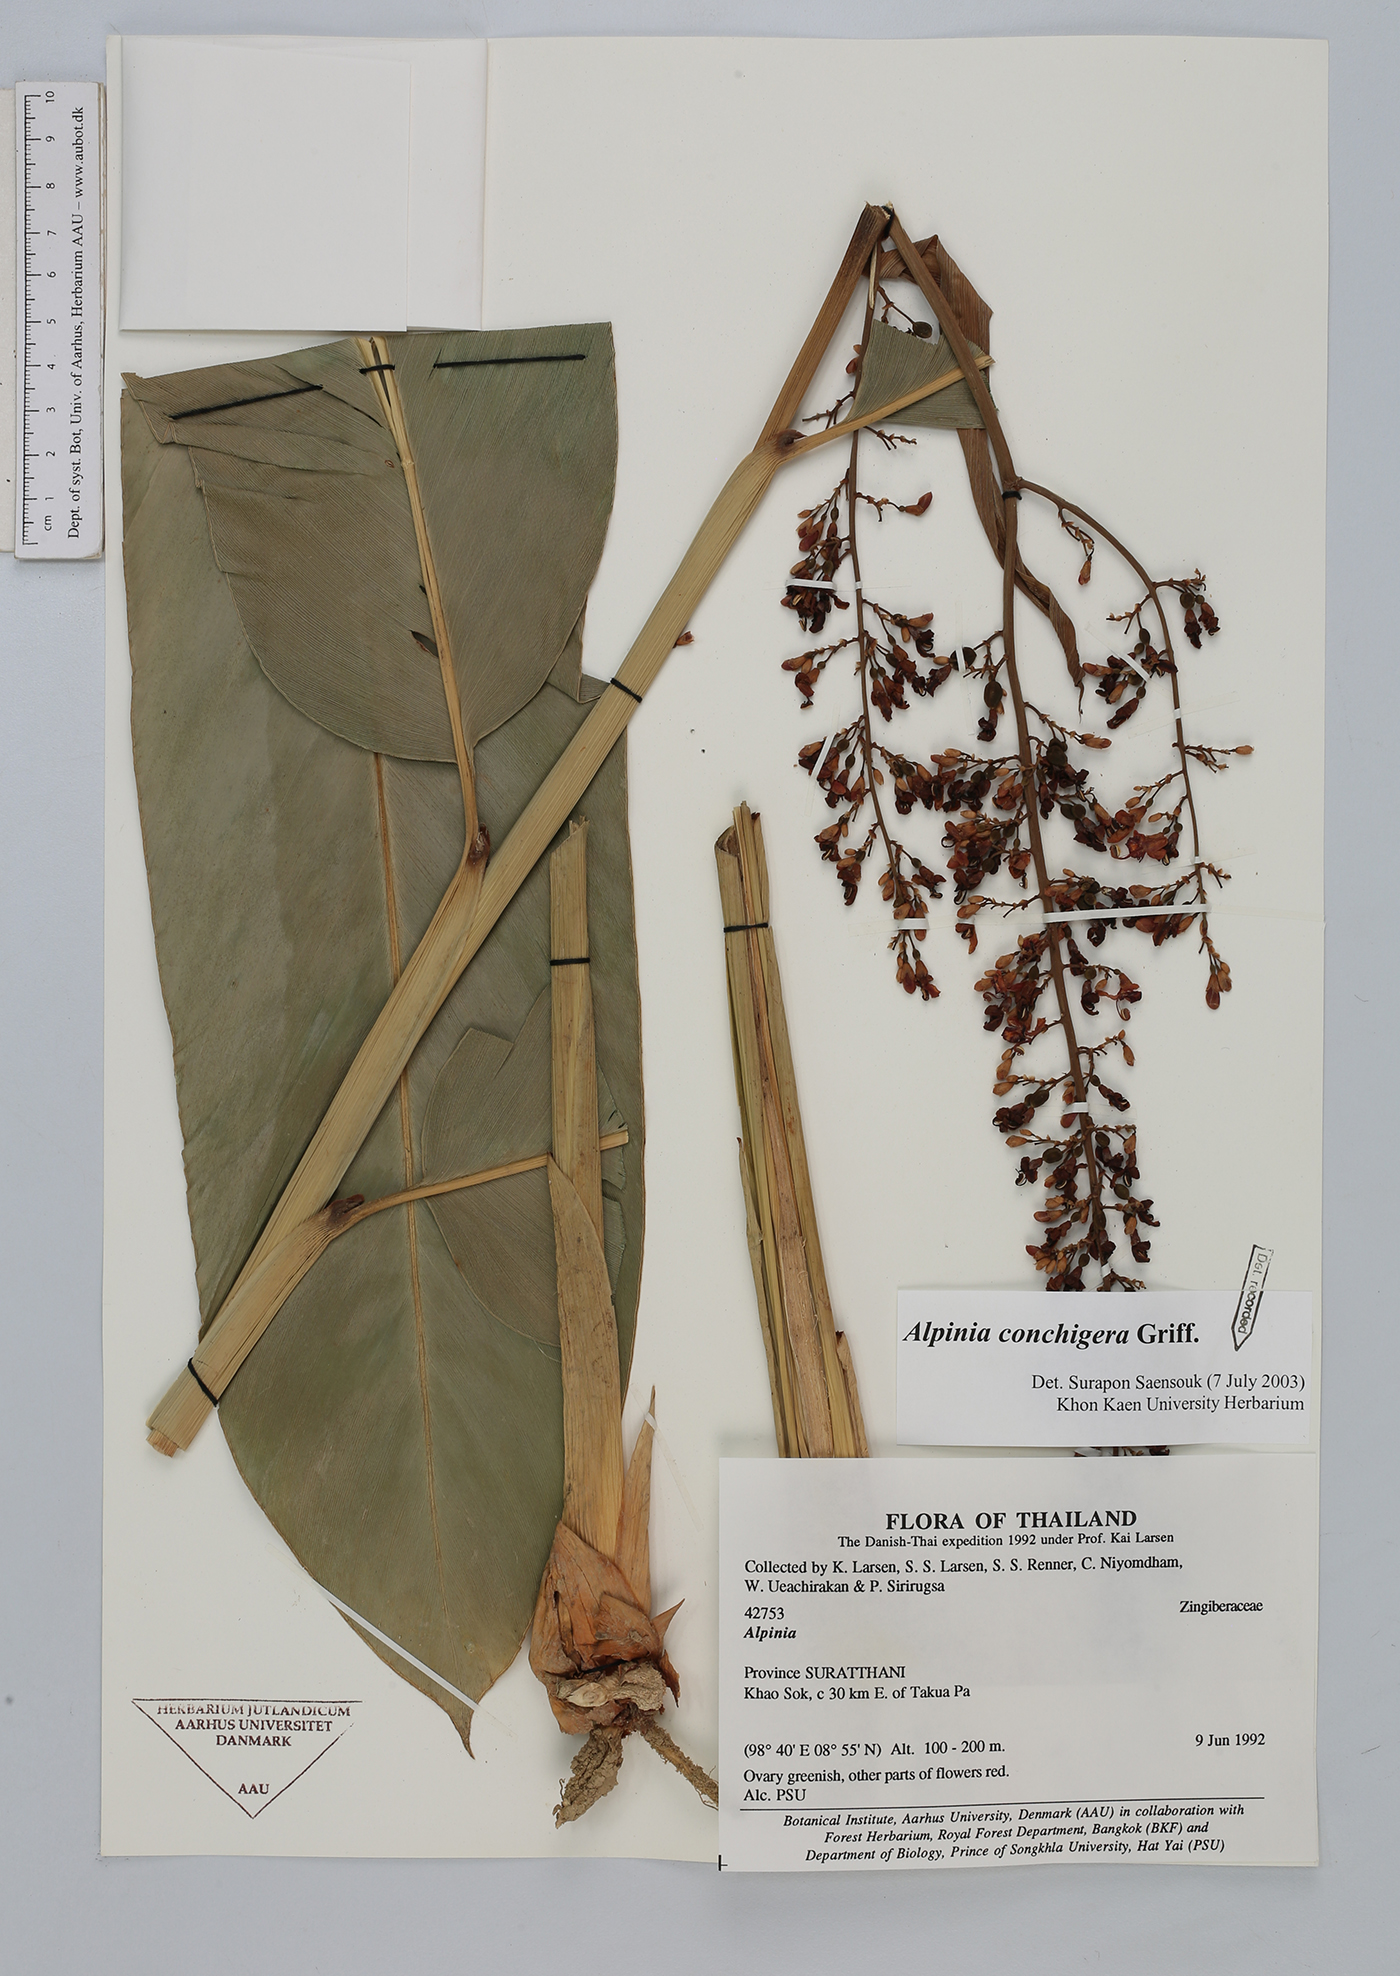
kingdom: Plantae
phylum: Tracheophyta
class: Liliopsida
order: Zingiberales
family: Zingiberaceae
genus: Alpinia
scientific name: Alpinia conchigera
